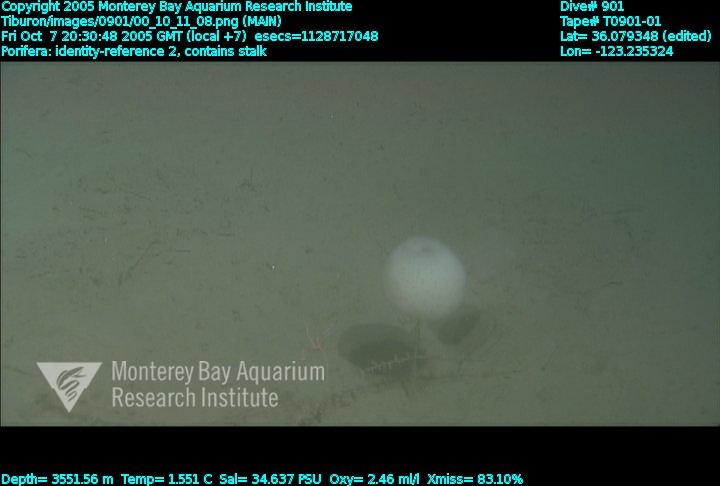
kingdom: Animalia
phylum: Porifera
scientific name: Porifera
